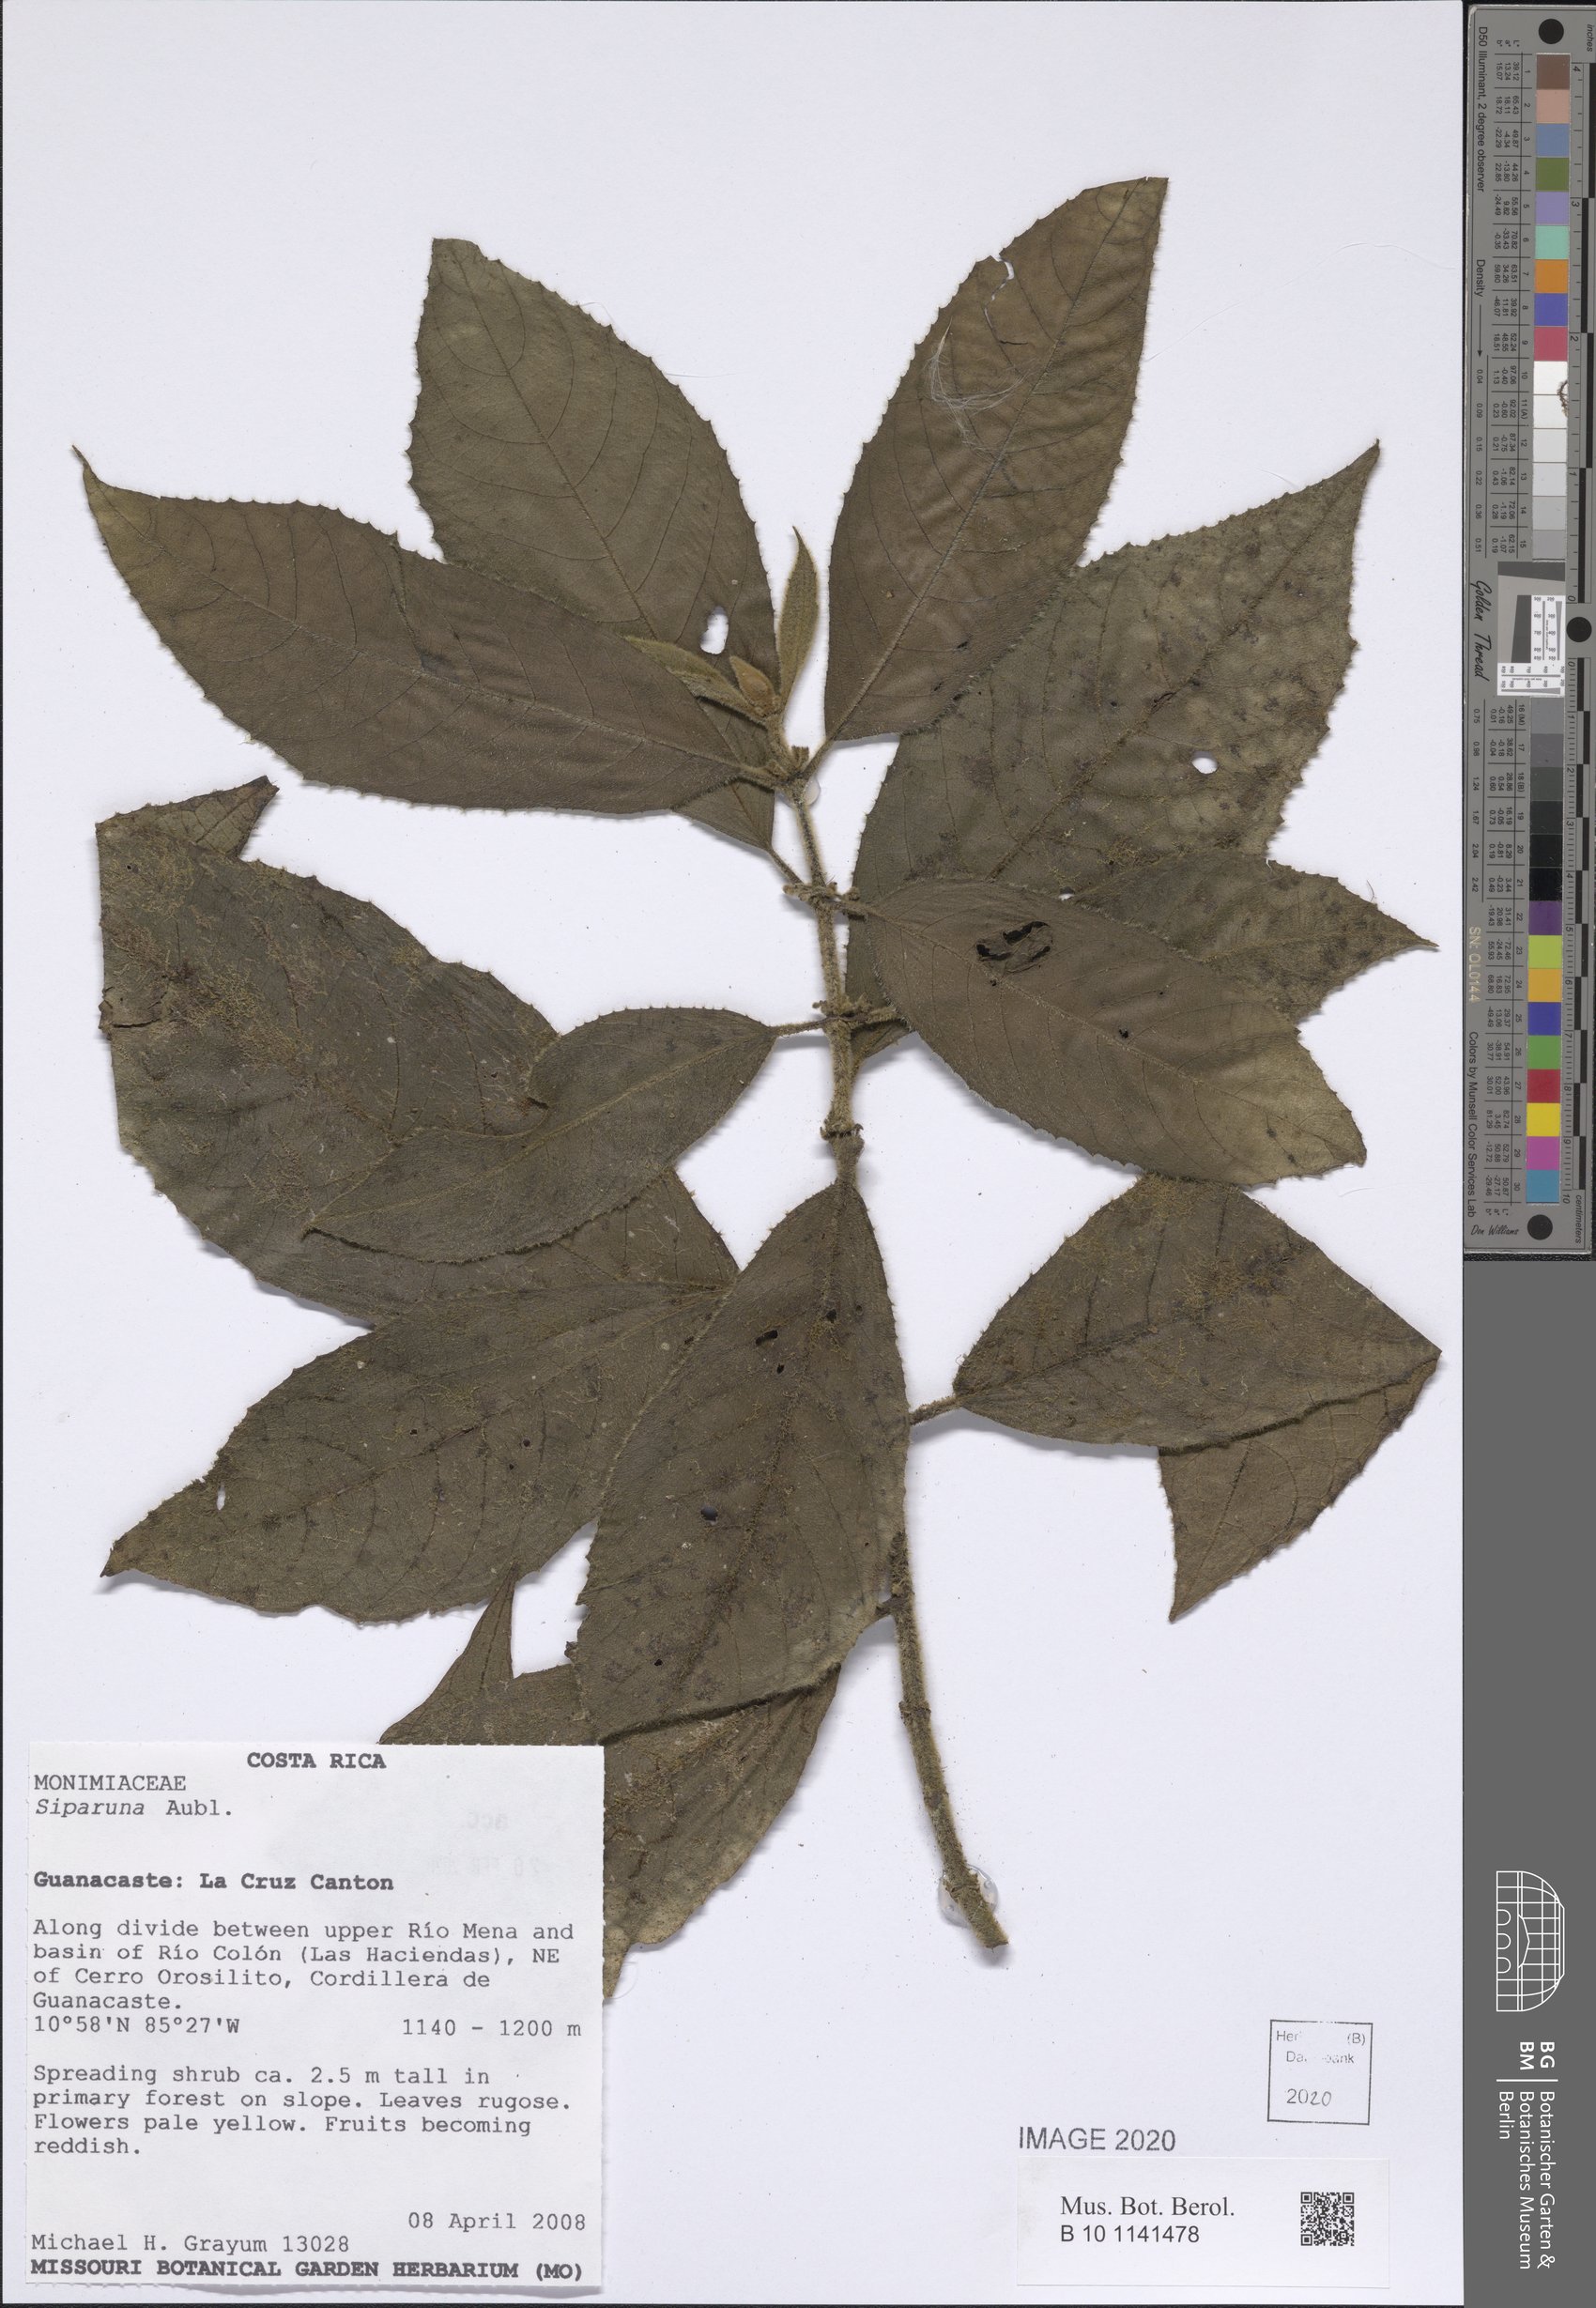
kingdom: Plantae
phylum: Tracheophyta
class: Magnoliopsida
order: Laurales
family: Siparunaceae
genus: Siparuna
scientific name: Siparuna
